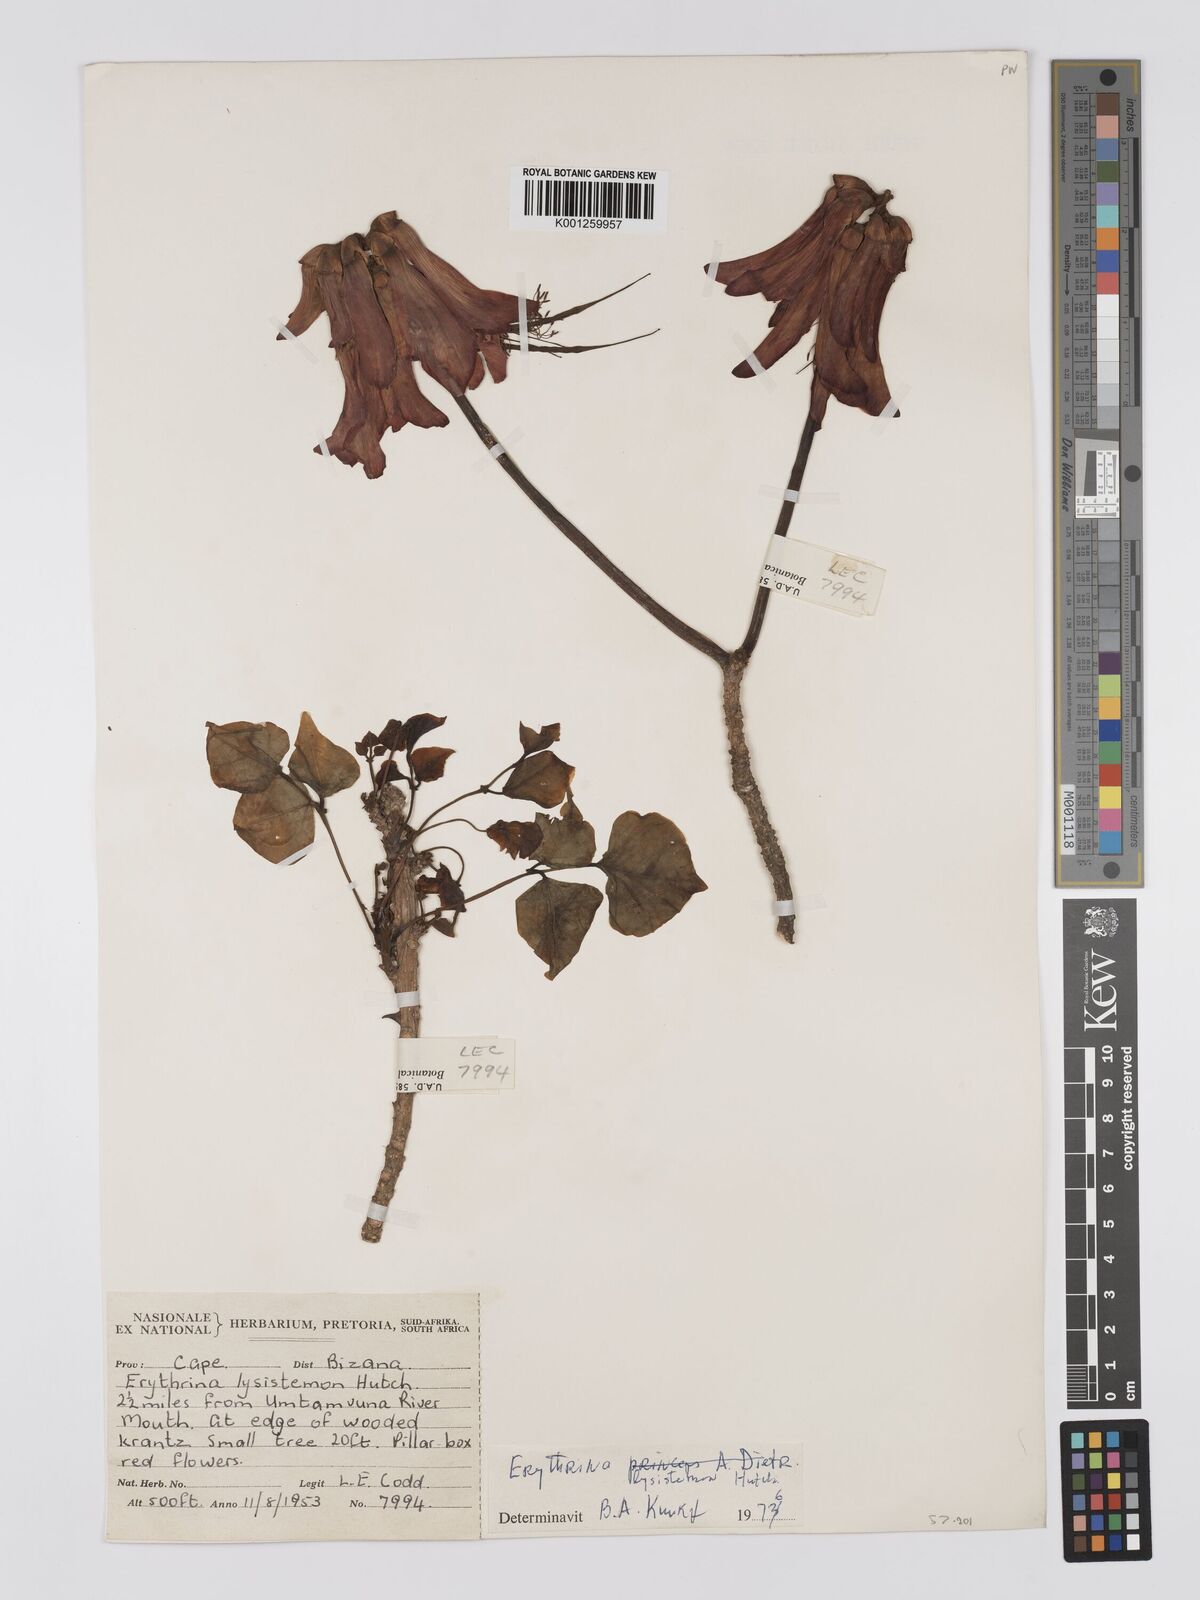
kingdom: Plantae
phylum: Tracheophyta
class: Magnoliopsida
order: Fabales
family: Fabaceae
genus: Erythrina
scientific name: Erythrina lysistemon
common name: Common coral tree
